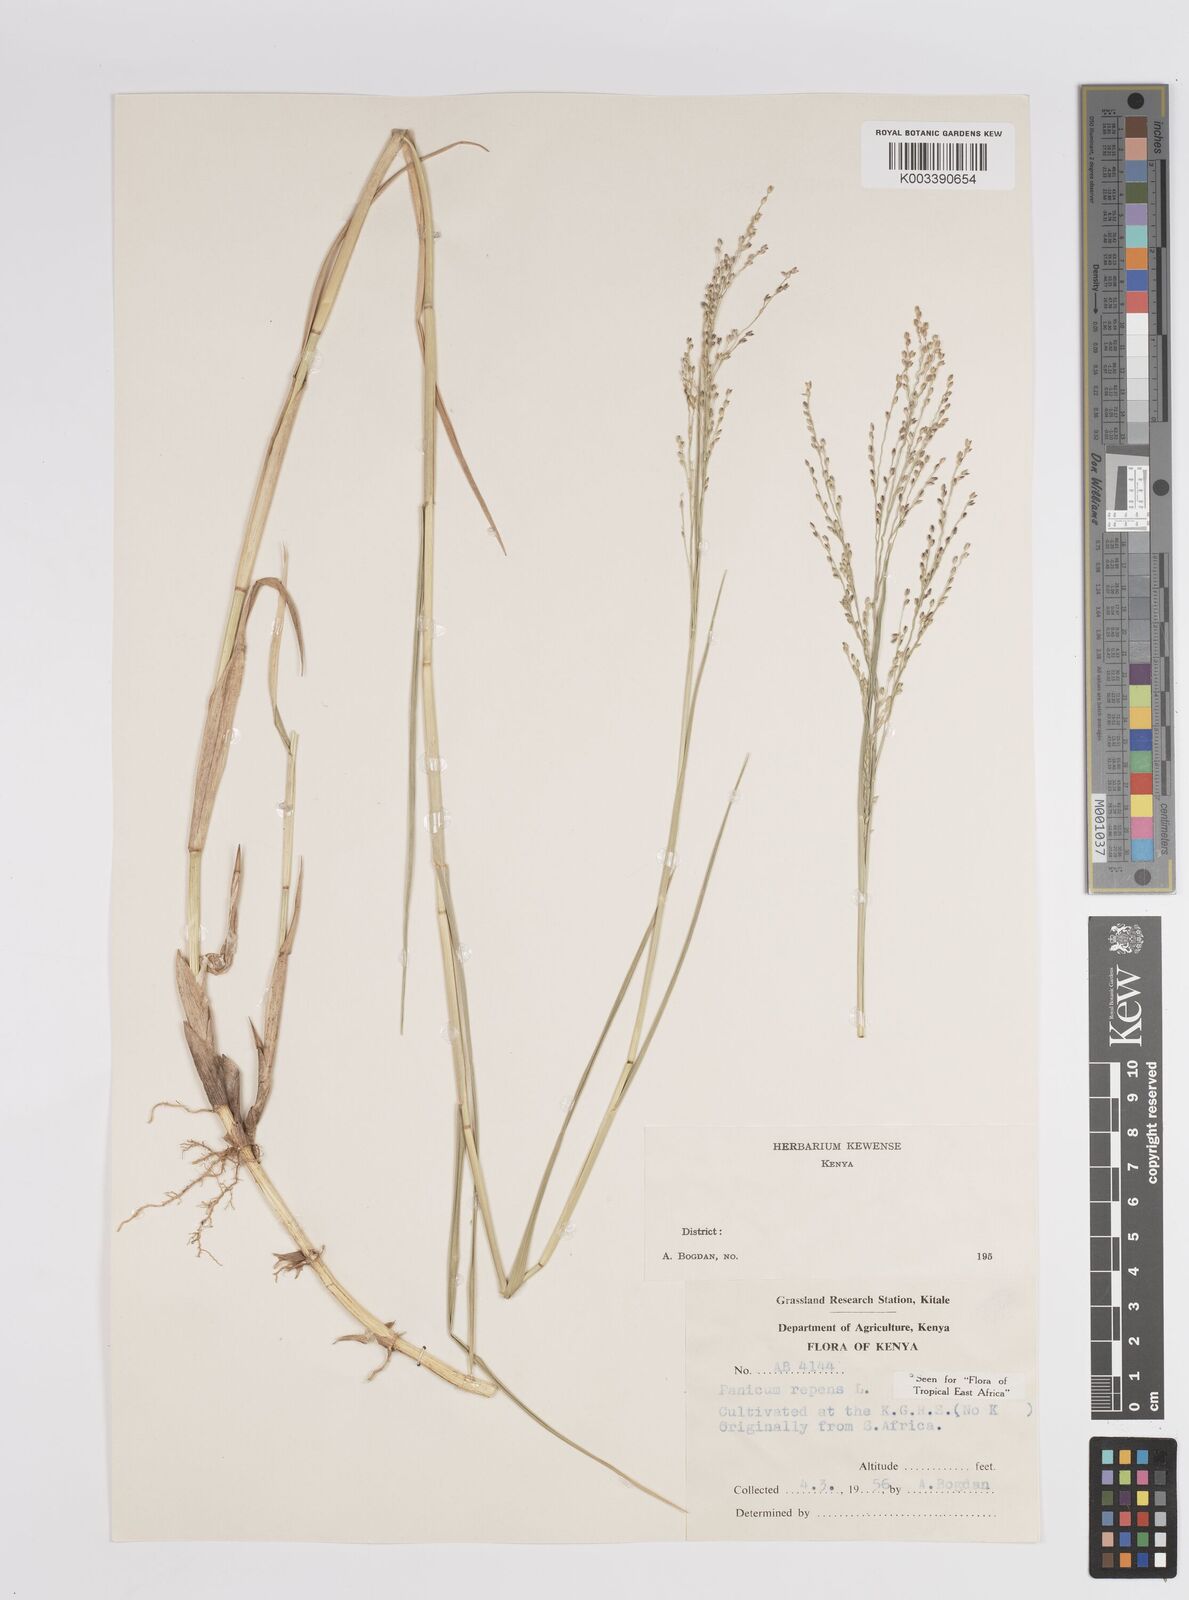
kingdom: Plantae
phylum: Tracheophyta
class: Liliopsida
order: Poales
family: Poaceae
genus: Panicum
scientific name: Panicum repens
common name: Torpedo grass
